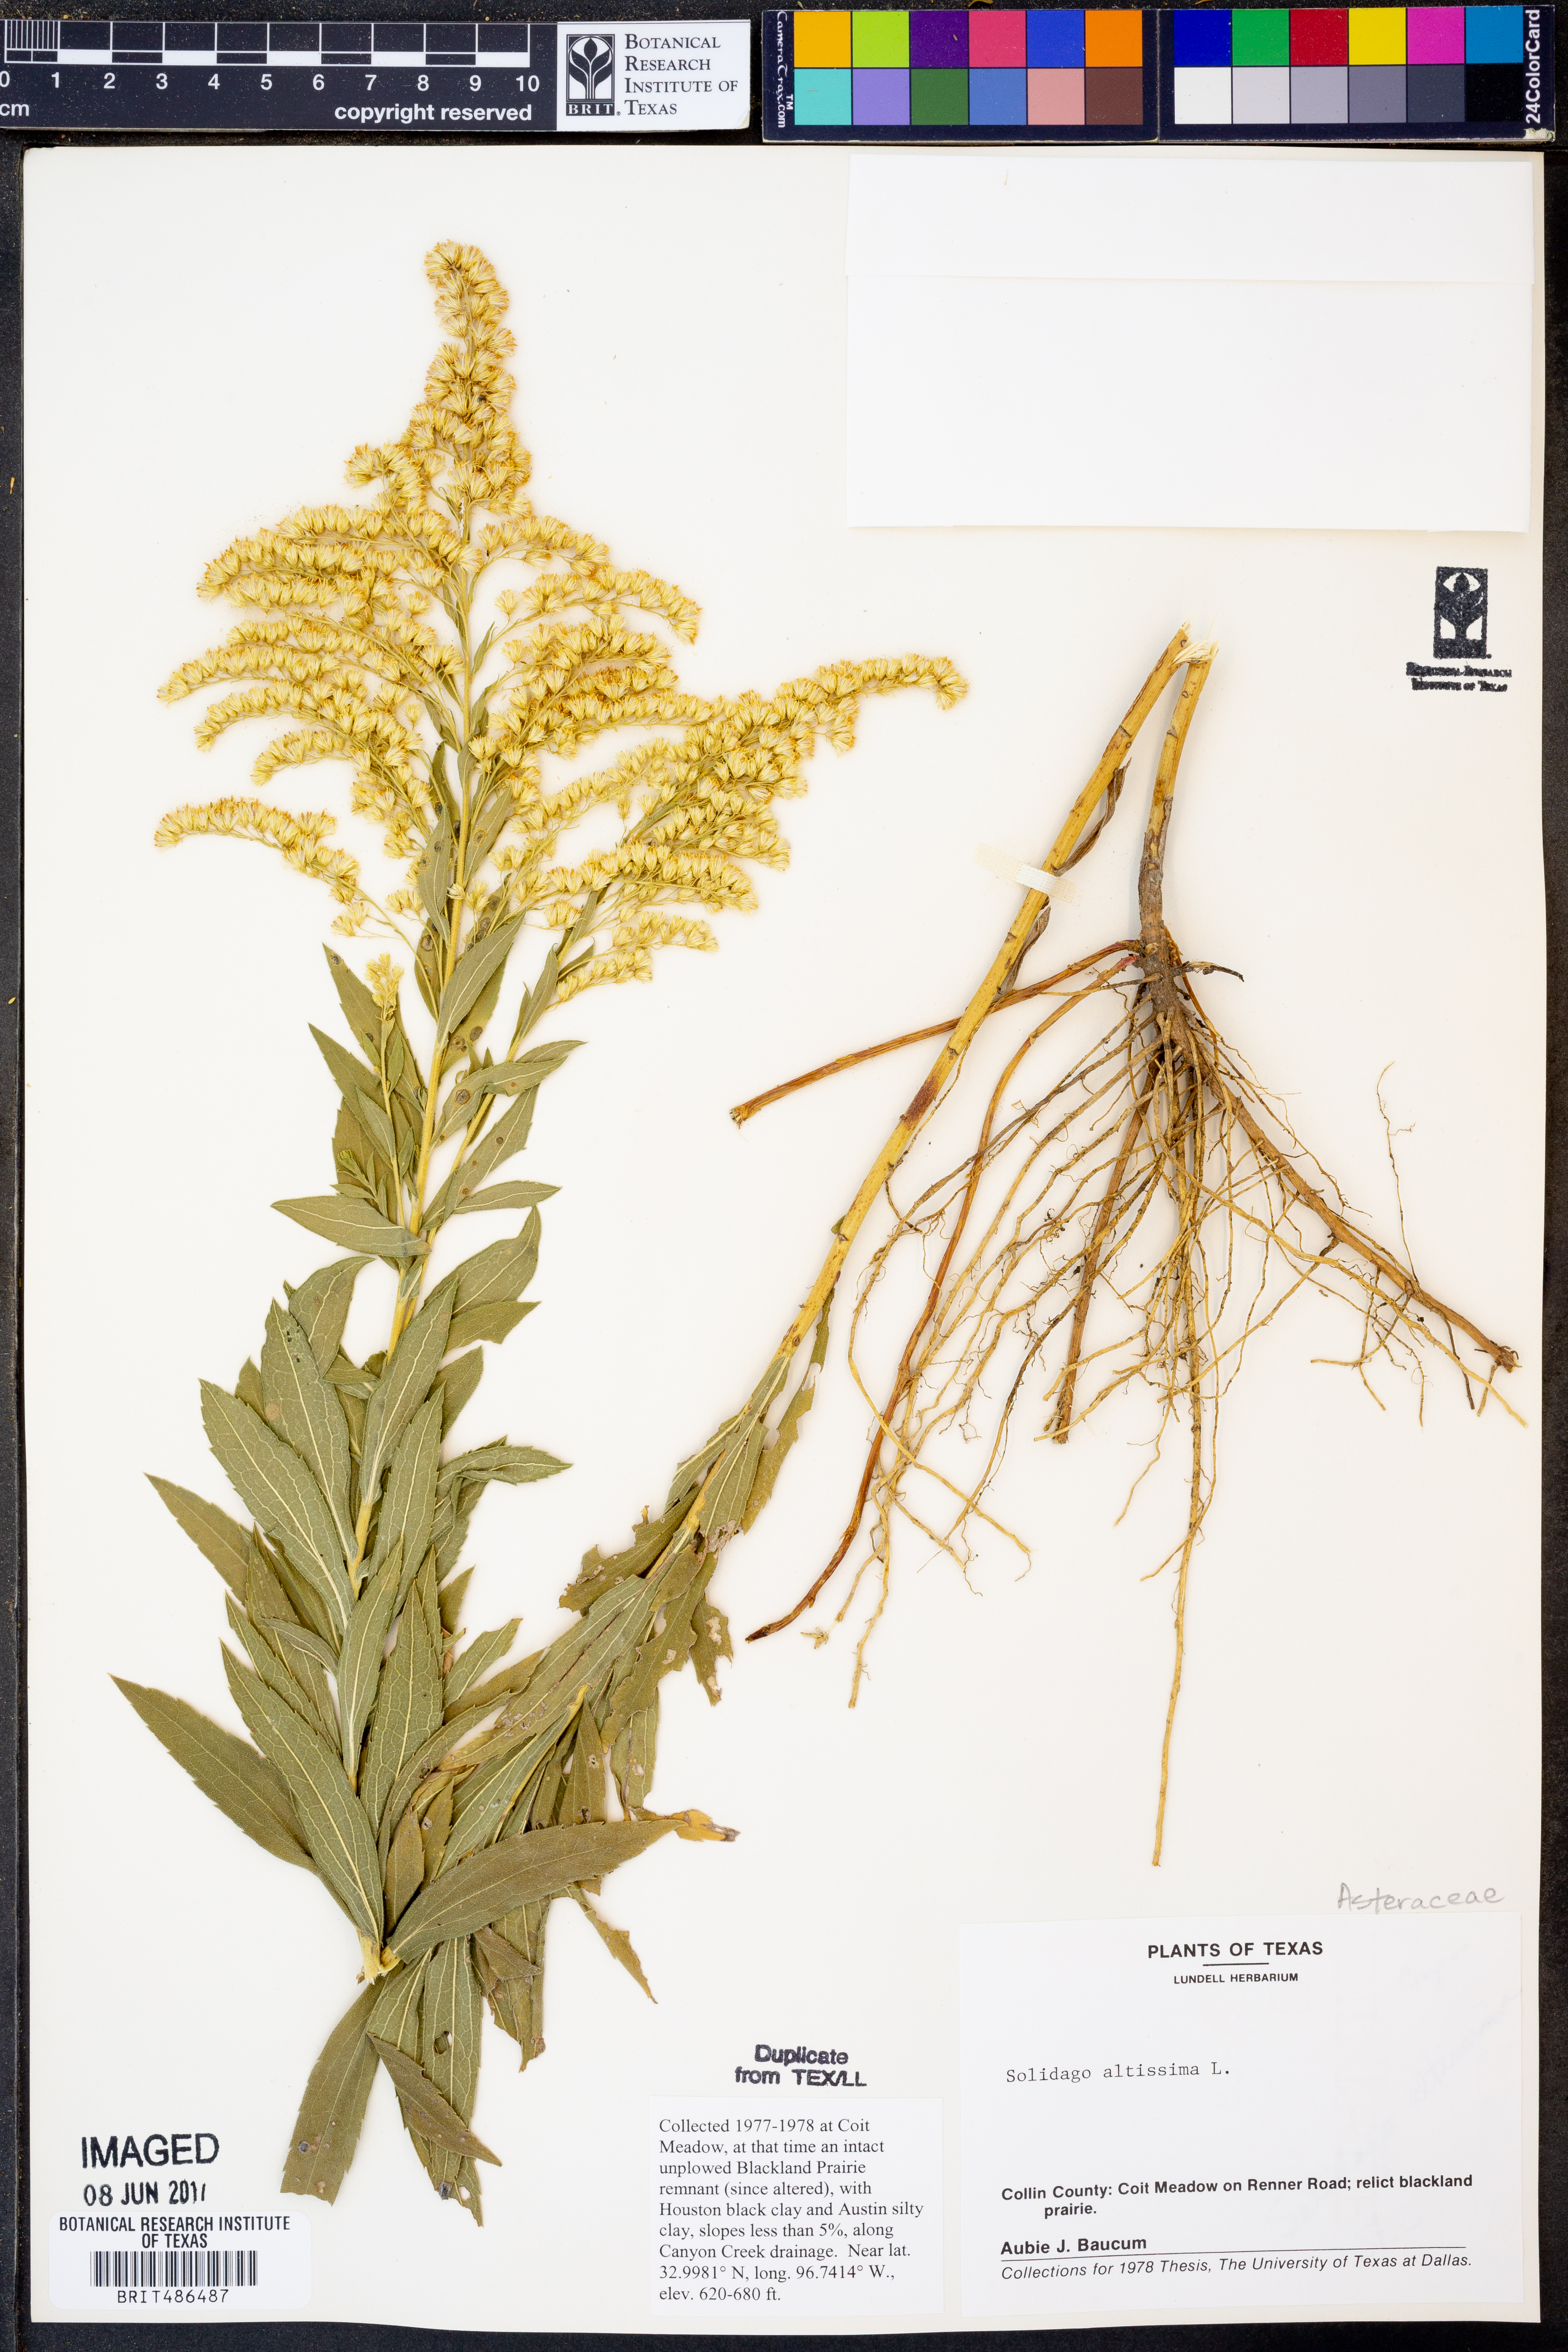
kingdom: Plantae
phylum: Tracheophyta
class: Magnoliopsida
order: Asterales
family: Asteraceae
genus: Solidago
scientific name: Solidago altissima
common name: Late goldenrod
